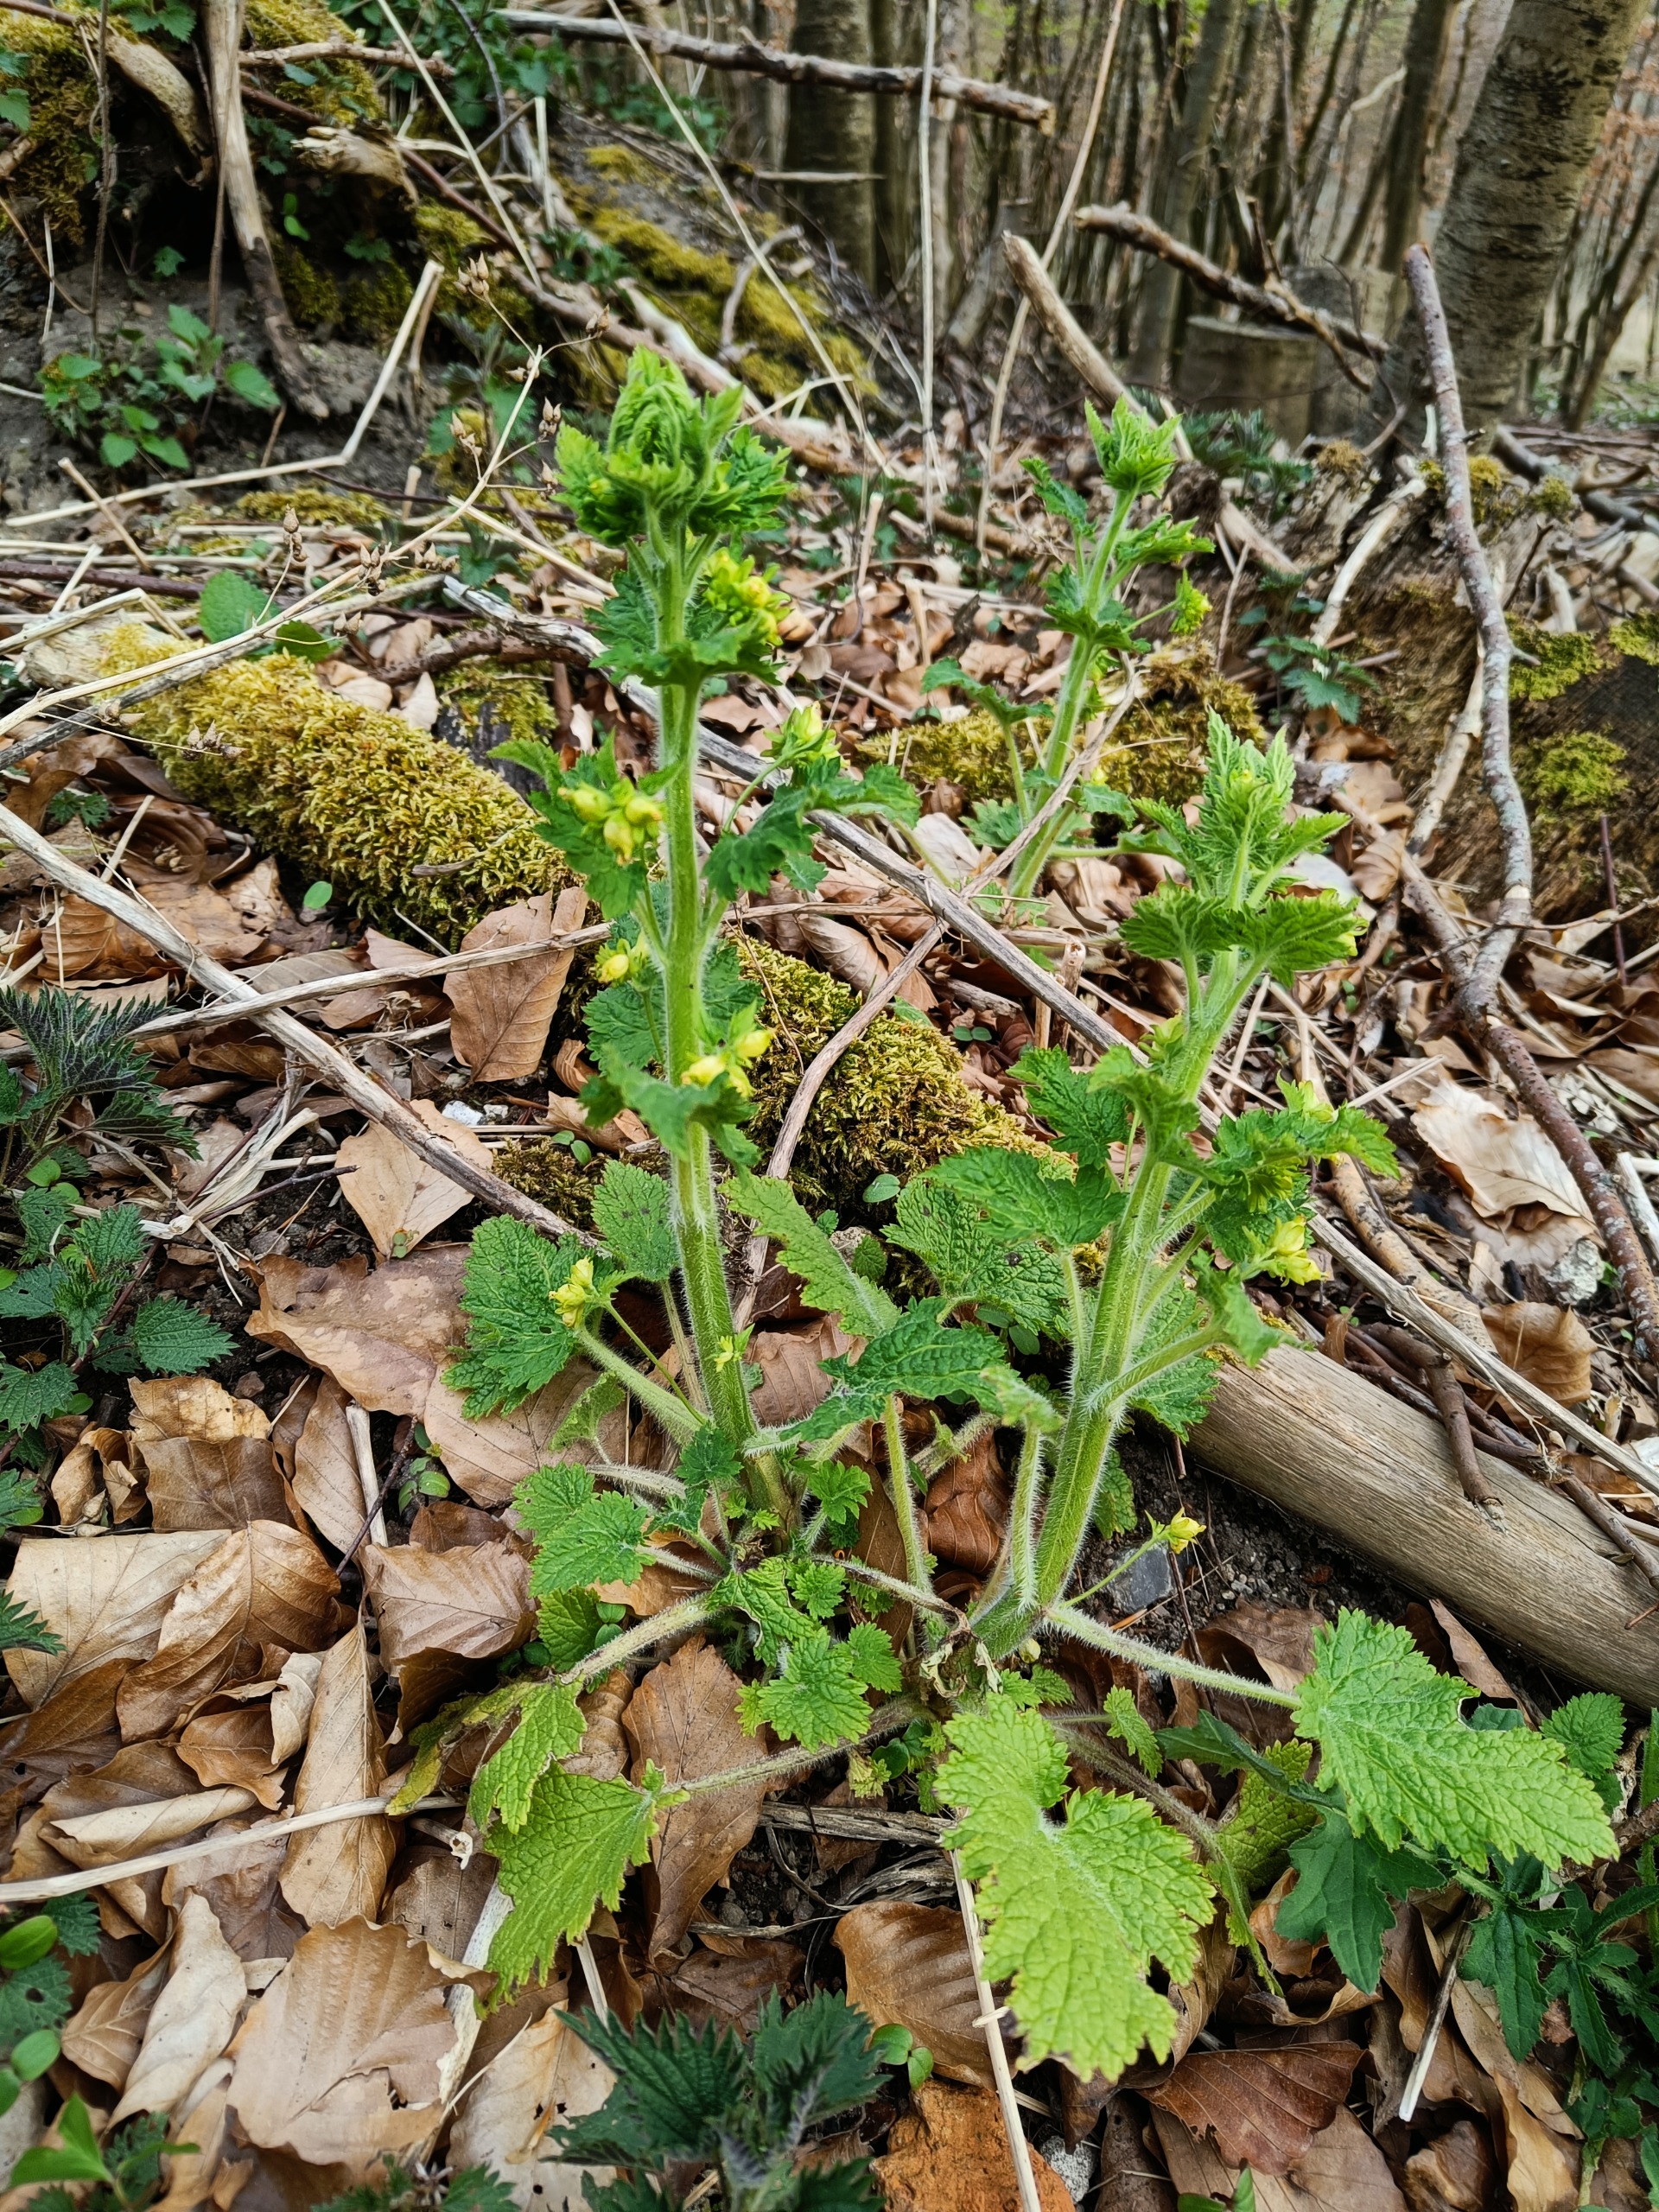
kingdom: Plantae
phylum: Tracheophyta
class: Magnoliopsida
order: Lamiales
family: Scrophulariaceae
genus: Scrophularia
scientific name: Scrophularia vernalis
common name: Vår-brunrod
